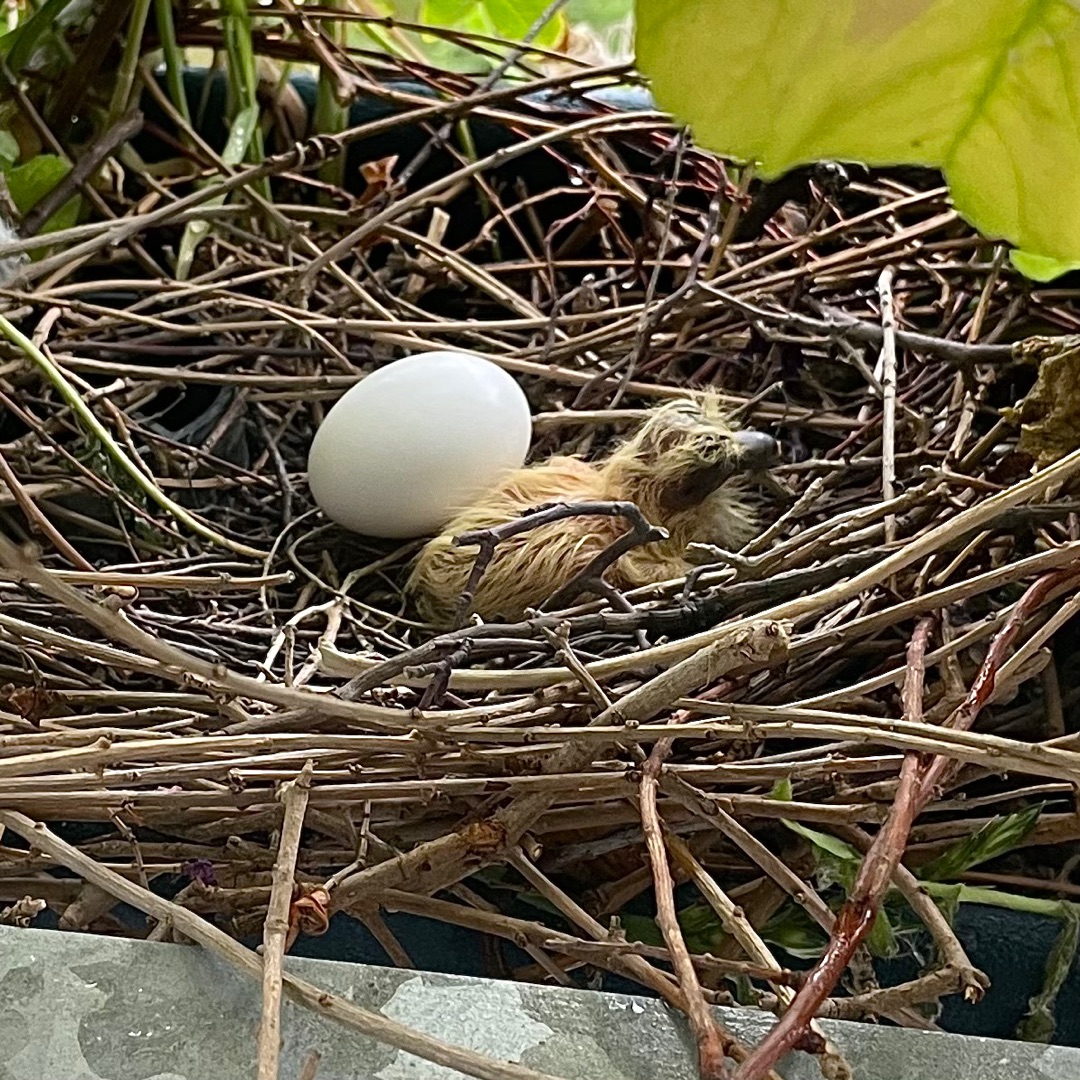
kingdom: Animalia
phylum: Chordata
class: Aves
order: Columbiformes
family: Columbidae
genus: Columba
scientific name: Columba palumbus
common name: Ringdue
